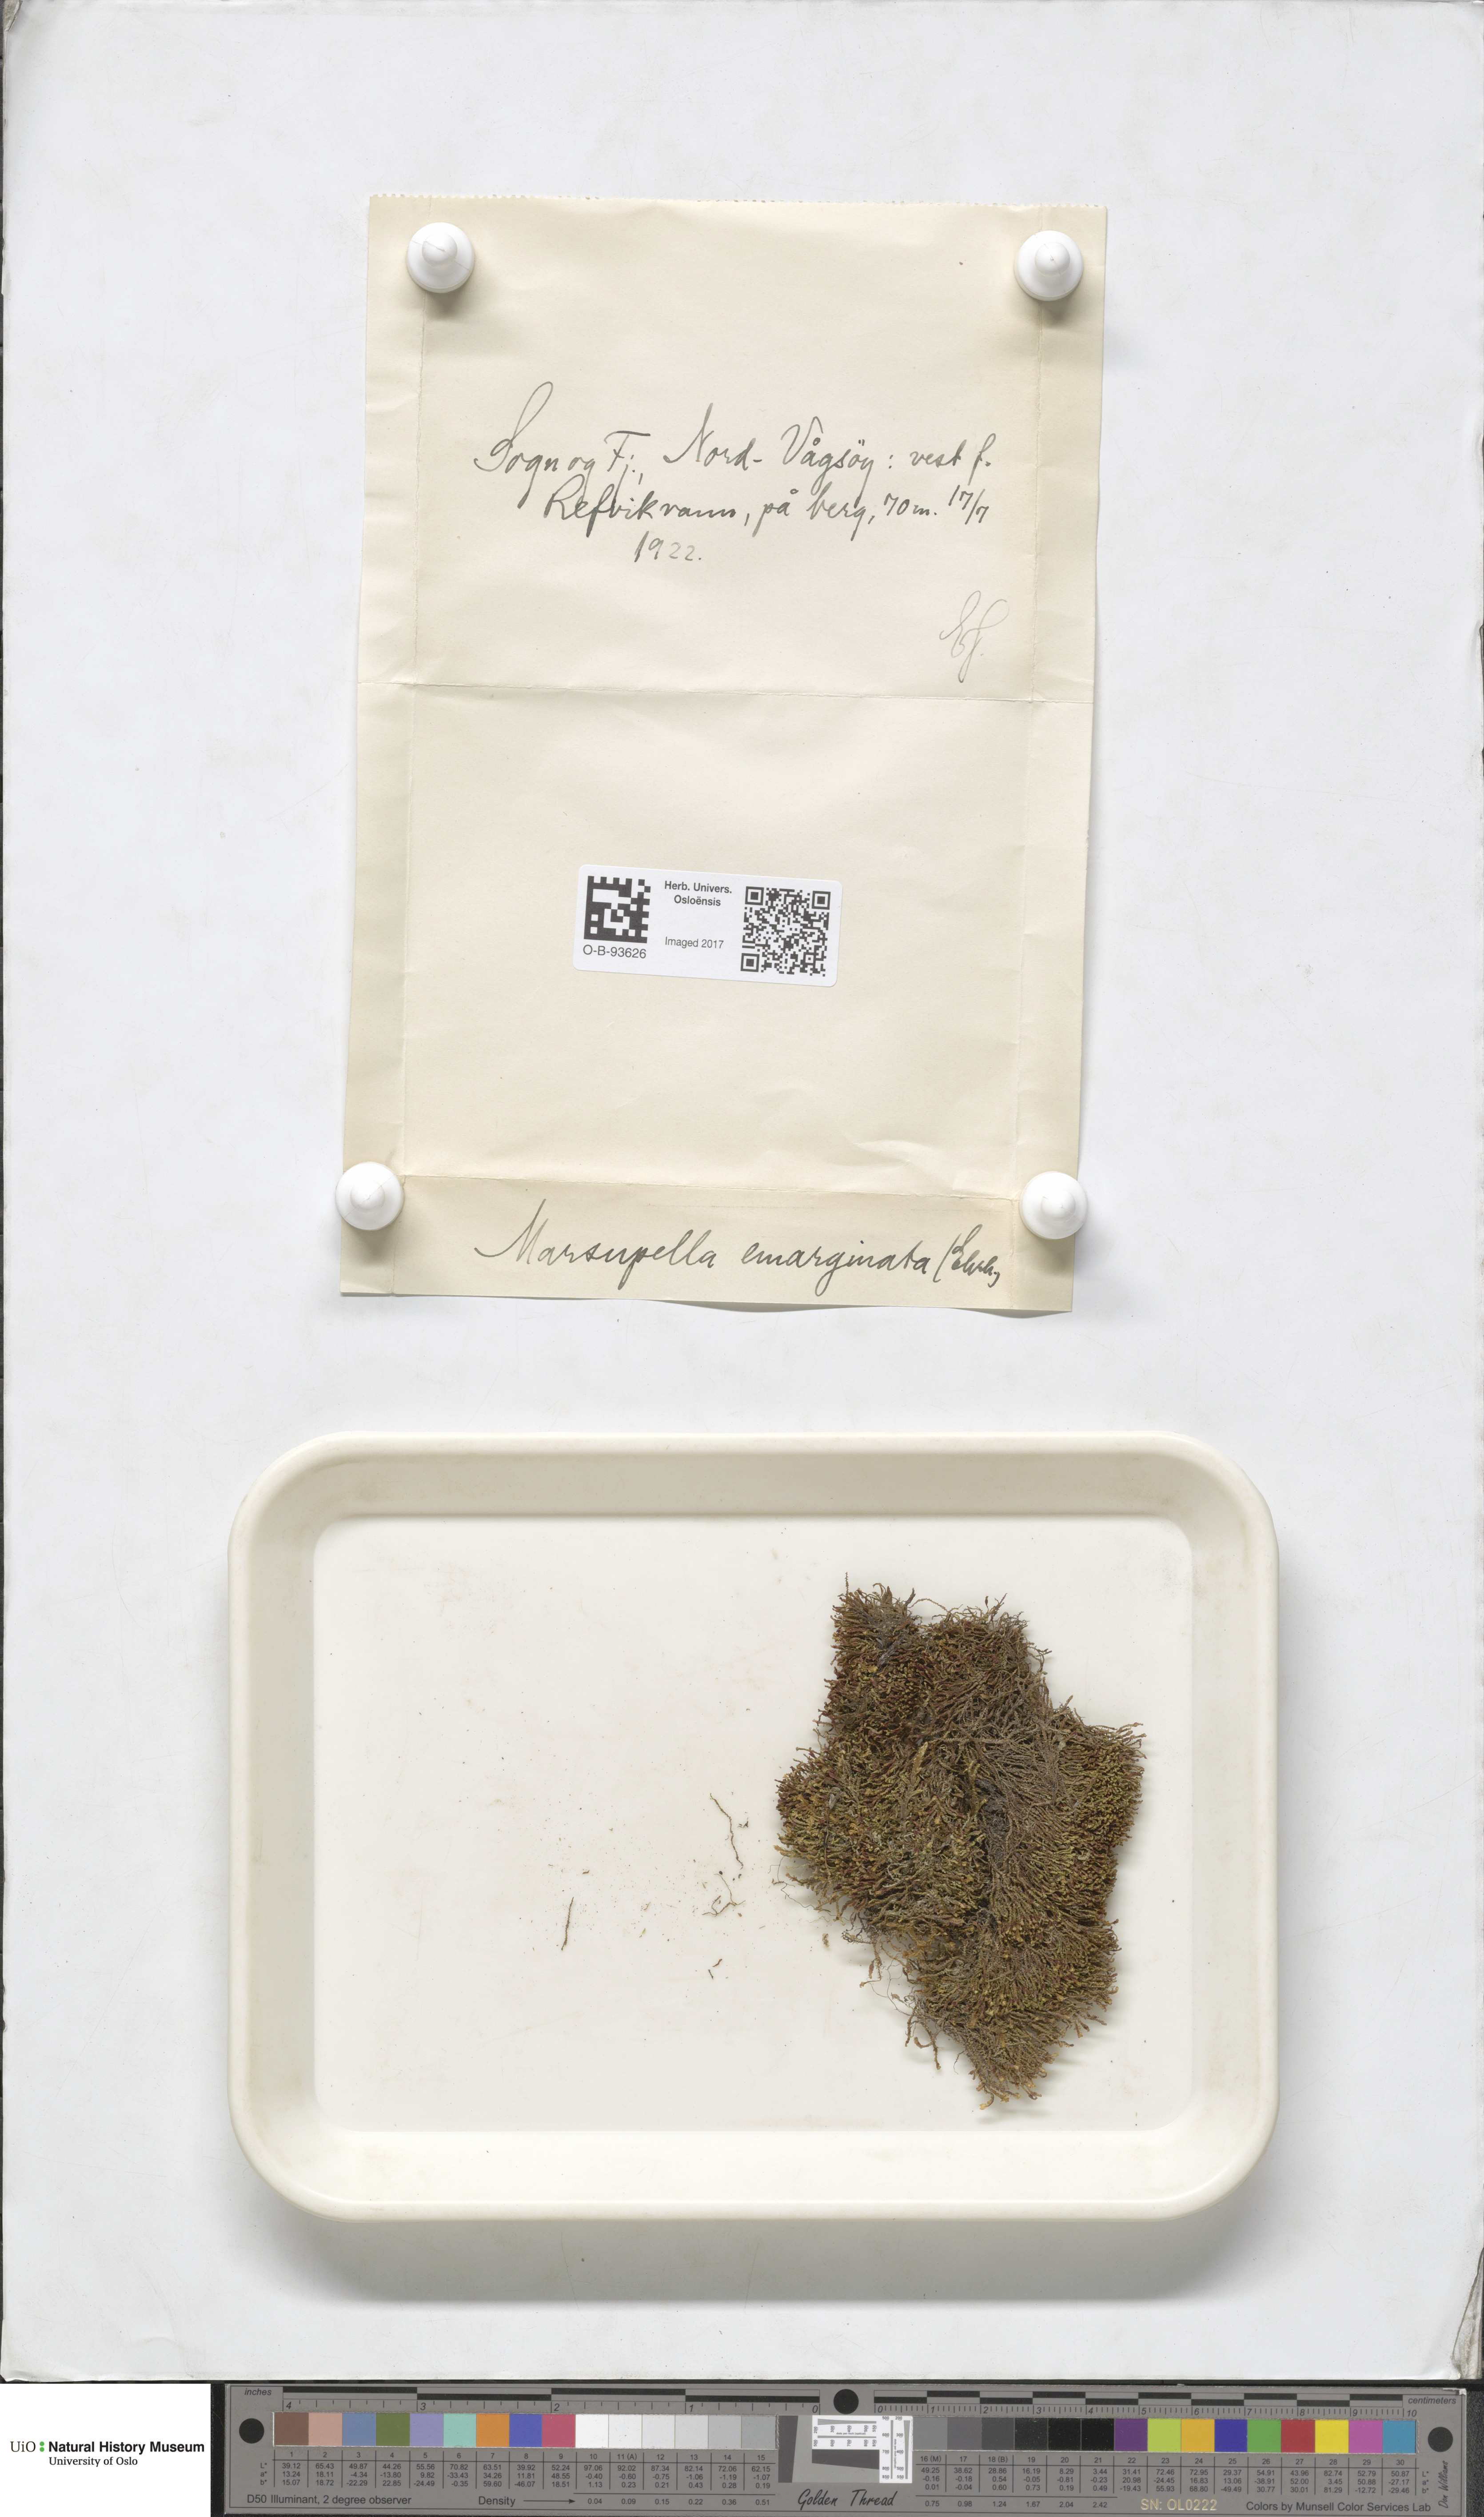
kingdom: Plantae
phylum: Marchantiophyta
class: Jungermanniopsida
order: Jungermanniales
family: Gymnomitriaceae
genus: Marsupella
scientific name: Marsupella emarginata
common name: Notched rustwort
